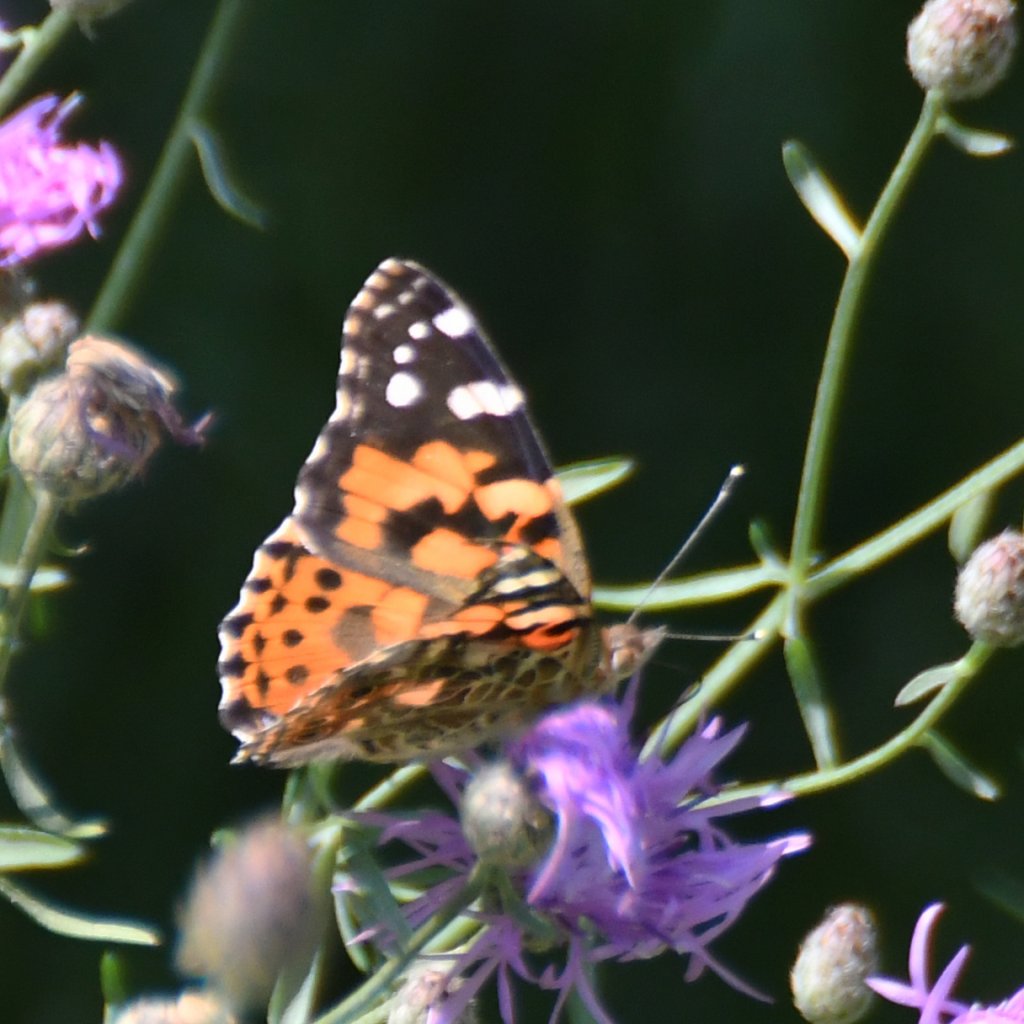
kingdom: Animalia
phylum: Arthropoda
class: Insecta
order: Lepidoptera
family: Nymphalidae
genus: Vanessa
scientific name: Vanessa cardui
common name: Painted Lady
